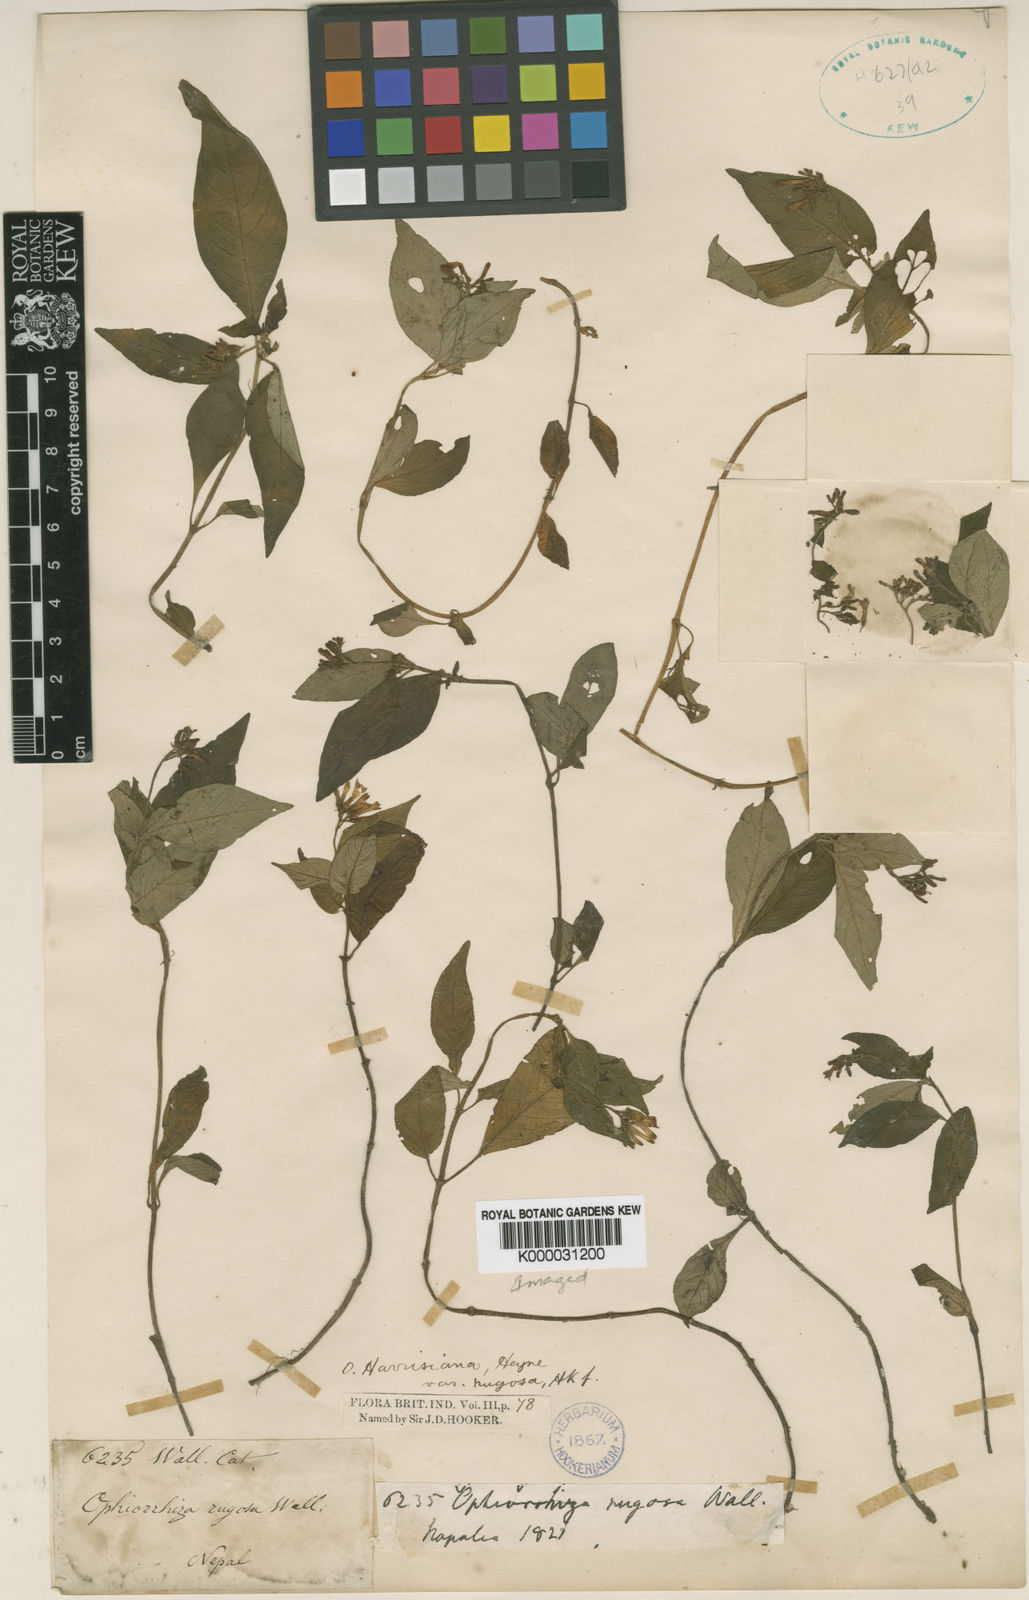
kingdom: Plantae
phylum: Tracheophyta
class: Magnoliopsida
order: Gentianales
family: Rubiaceae
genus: Ophiorrhiza
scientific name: Ophiorrhiza rugosa
